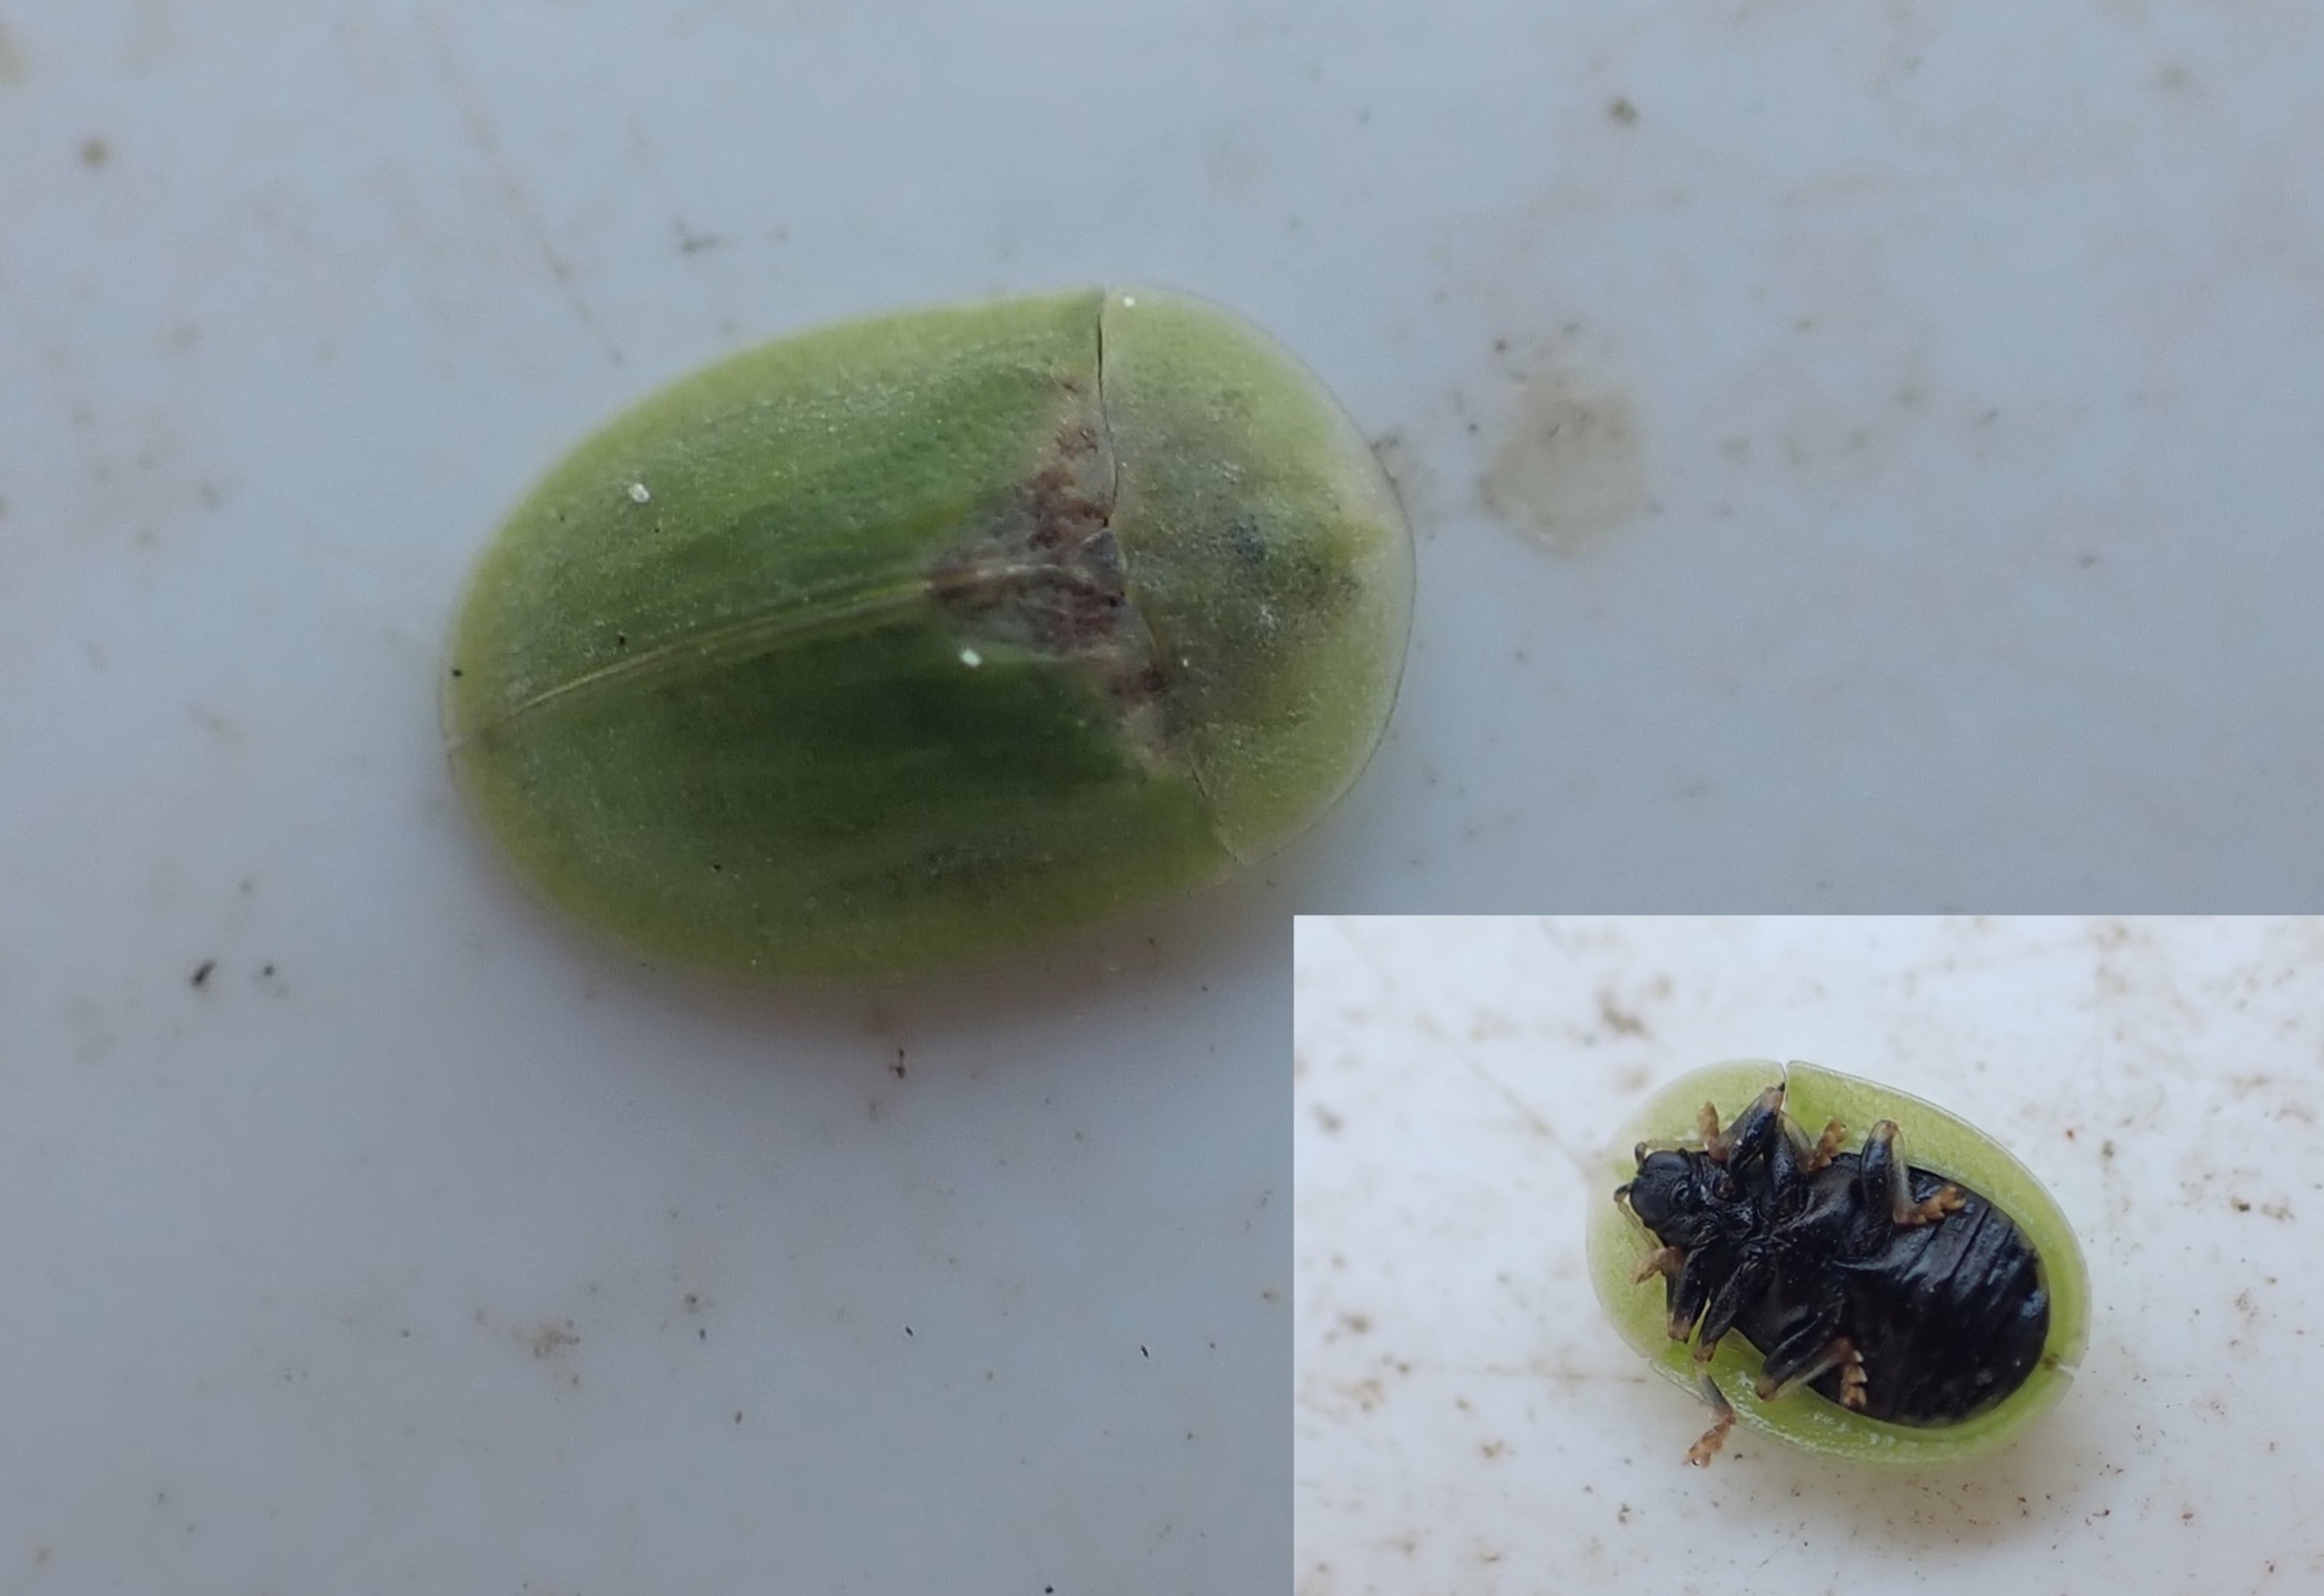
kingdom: Animalia
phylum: Arthropoda
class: Insecta
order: Coleoptera
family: Chrysomelidae
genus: Cassida
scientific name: Cassida rubiginosa
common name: Tidselskjoldbille
